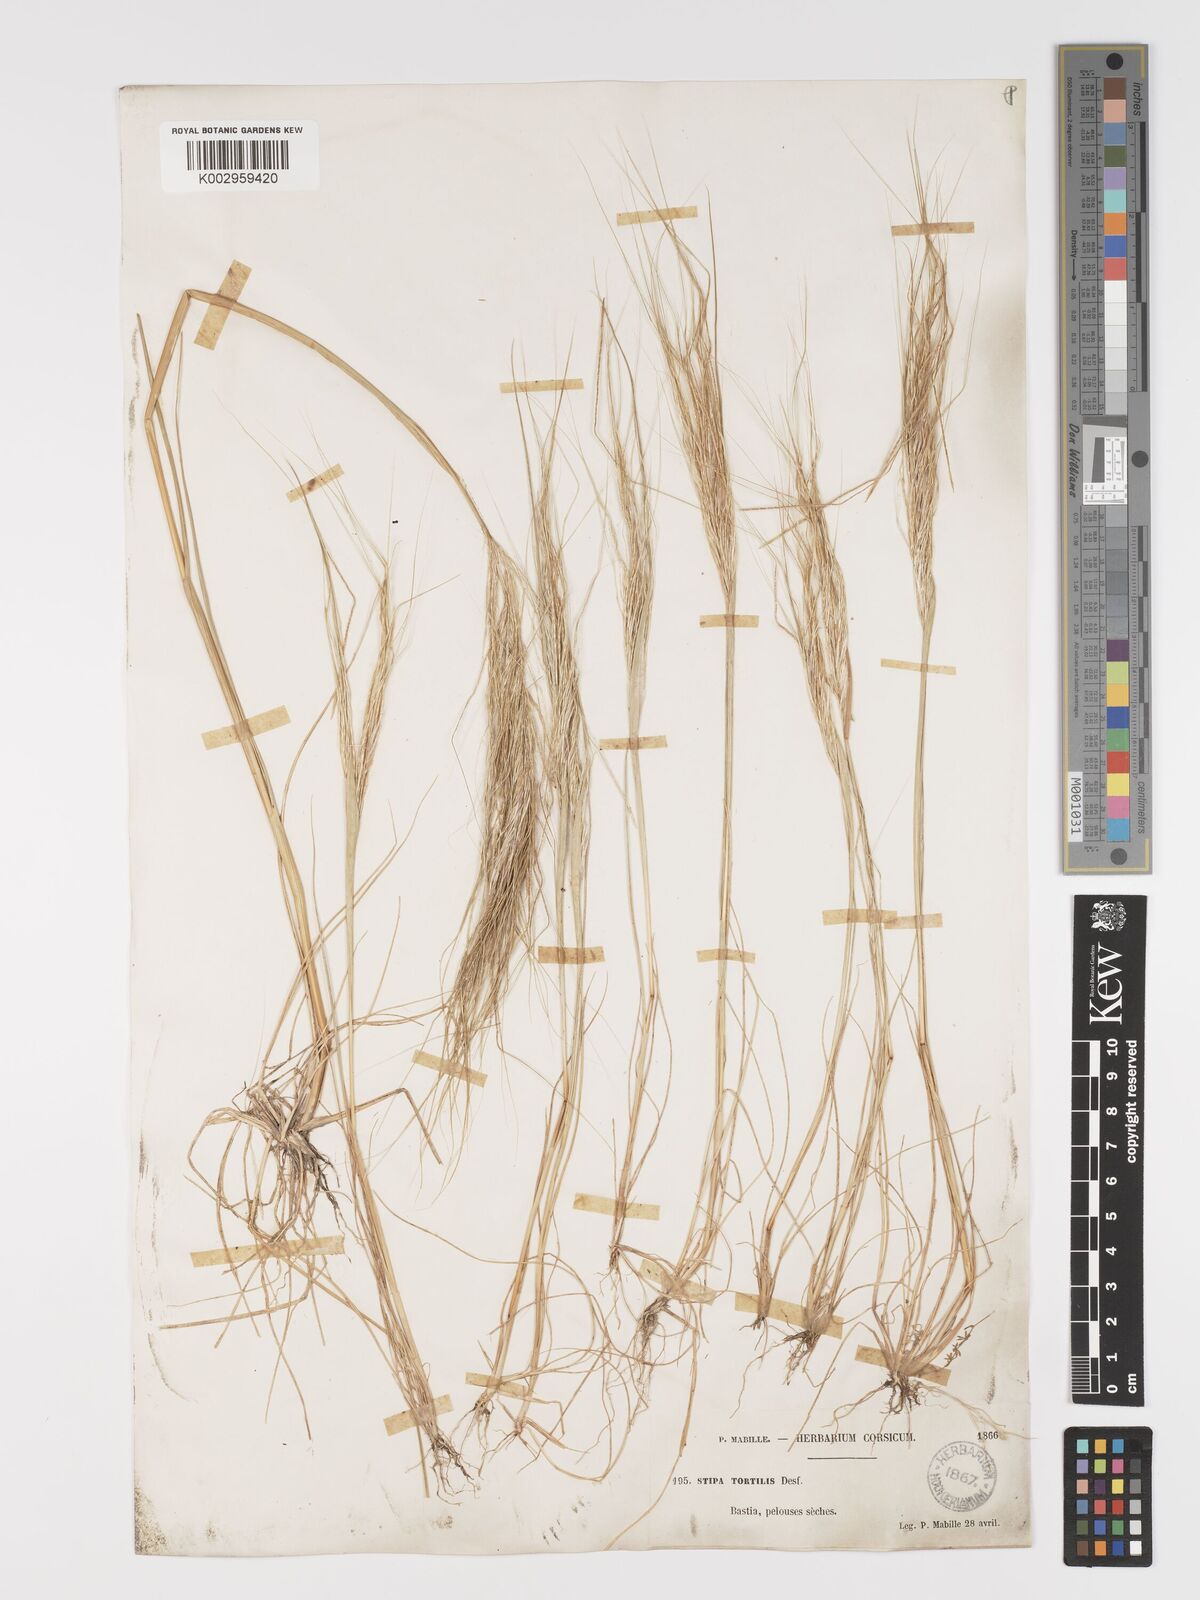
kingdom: Plantae
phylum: Tracheophyta
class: Liliopsida
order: Poales
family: Poaceae
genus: Stipa
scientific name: Stipa
